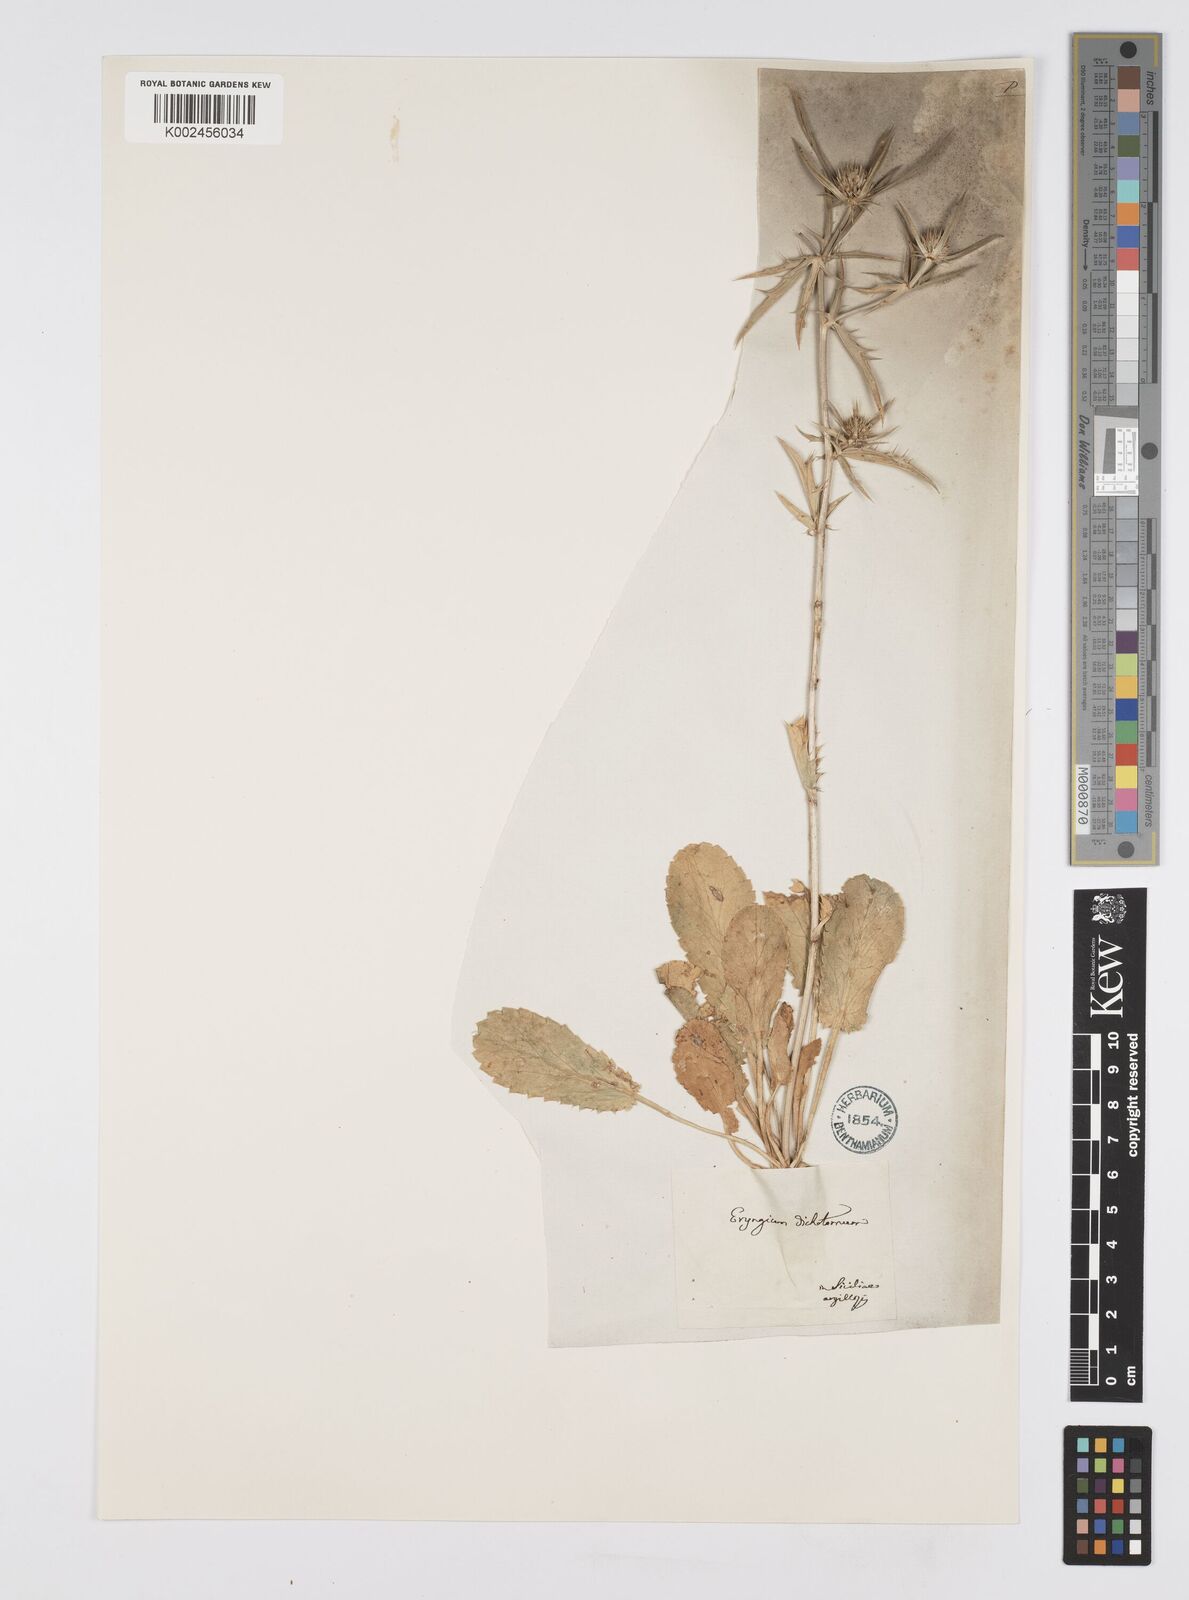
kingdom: Plantae
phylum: Tracheophyta
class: Magnoliopsida
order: Apiales
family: Apiaceae
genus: Eryngium
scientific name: Eryngium dichotomum
